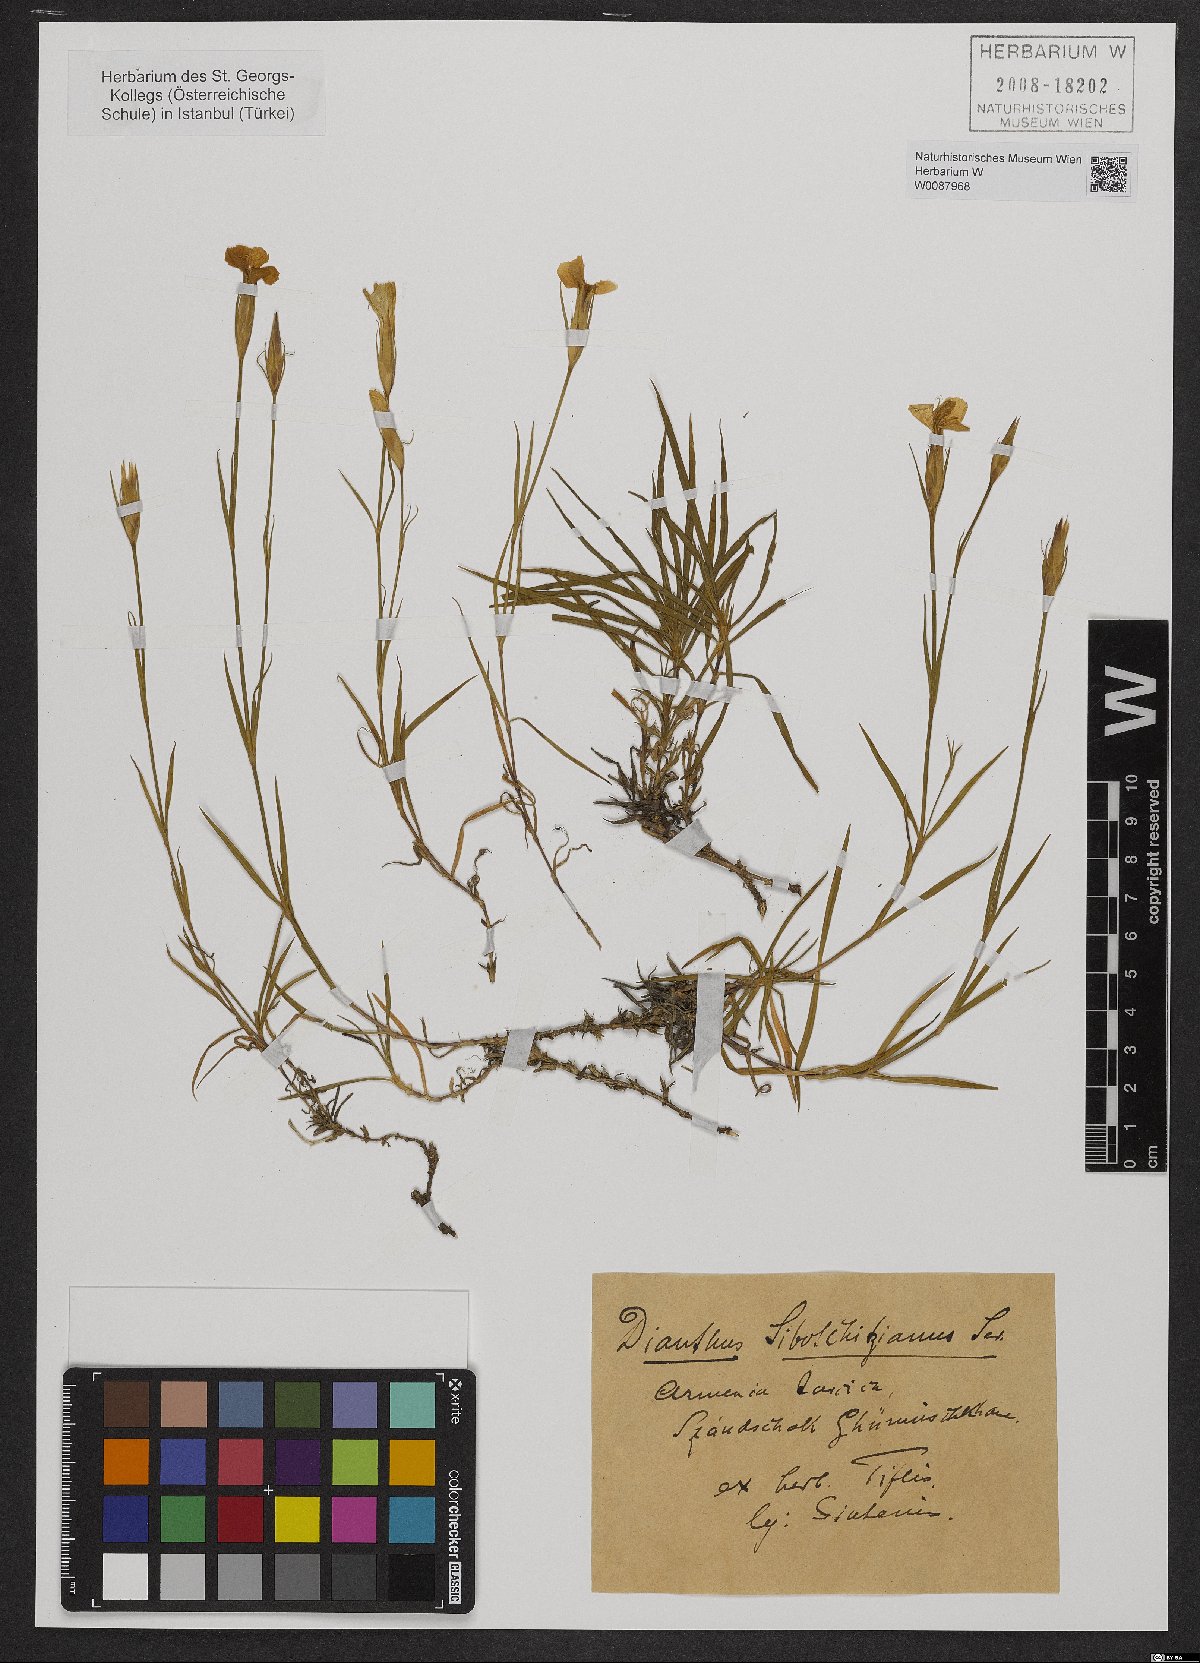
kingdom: Plantae
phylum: Tracheophyta
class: Magnoliopsida
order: Caryophyllales
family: Caryophyllaceae
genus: Dianthus
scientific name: Dianthus fragrans
